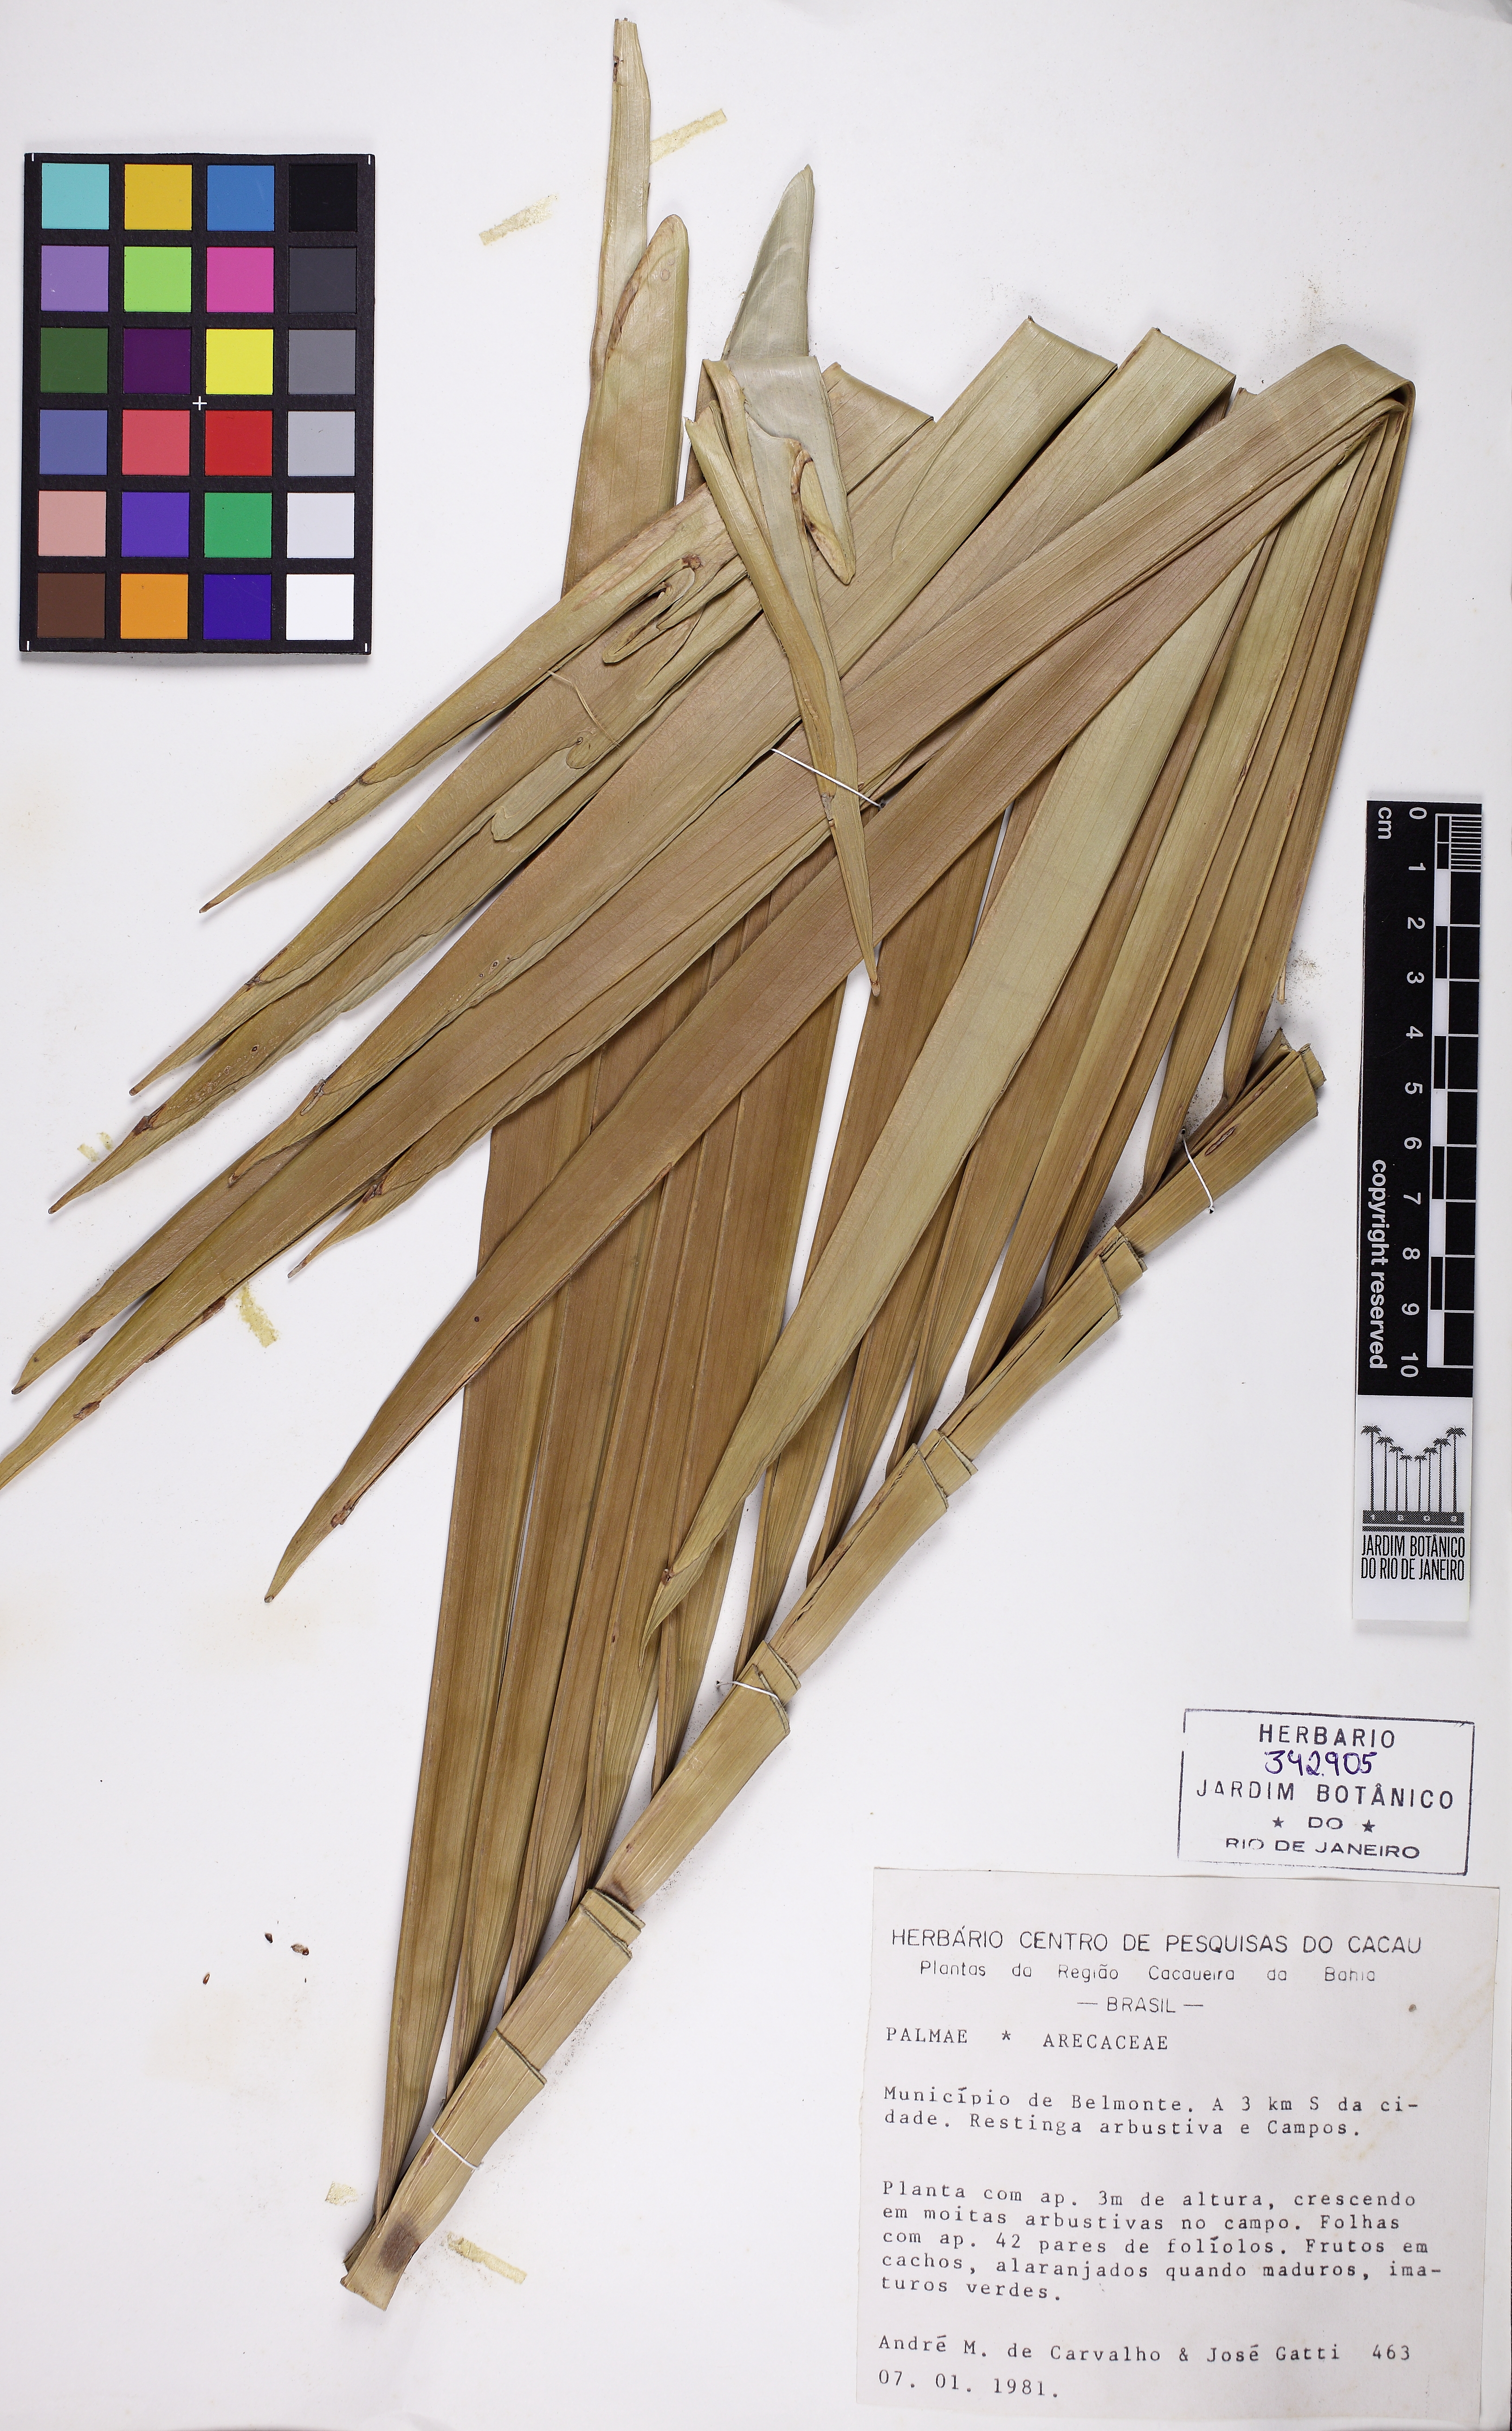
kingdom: Plantae
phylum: Tracheophyta
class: Liliopsida
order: Arecales
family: Arecaceae
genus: Syagrus
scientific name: Syagrus schizophylla
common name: Arikury palm
